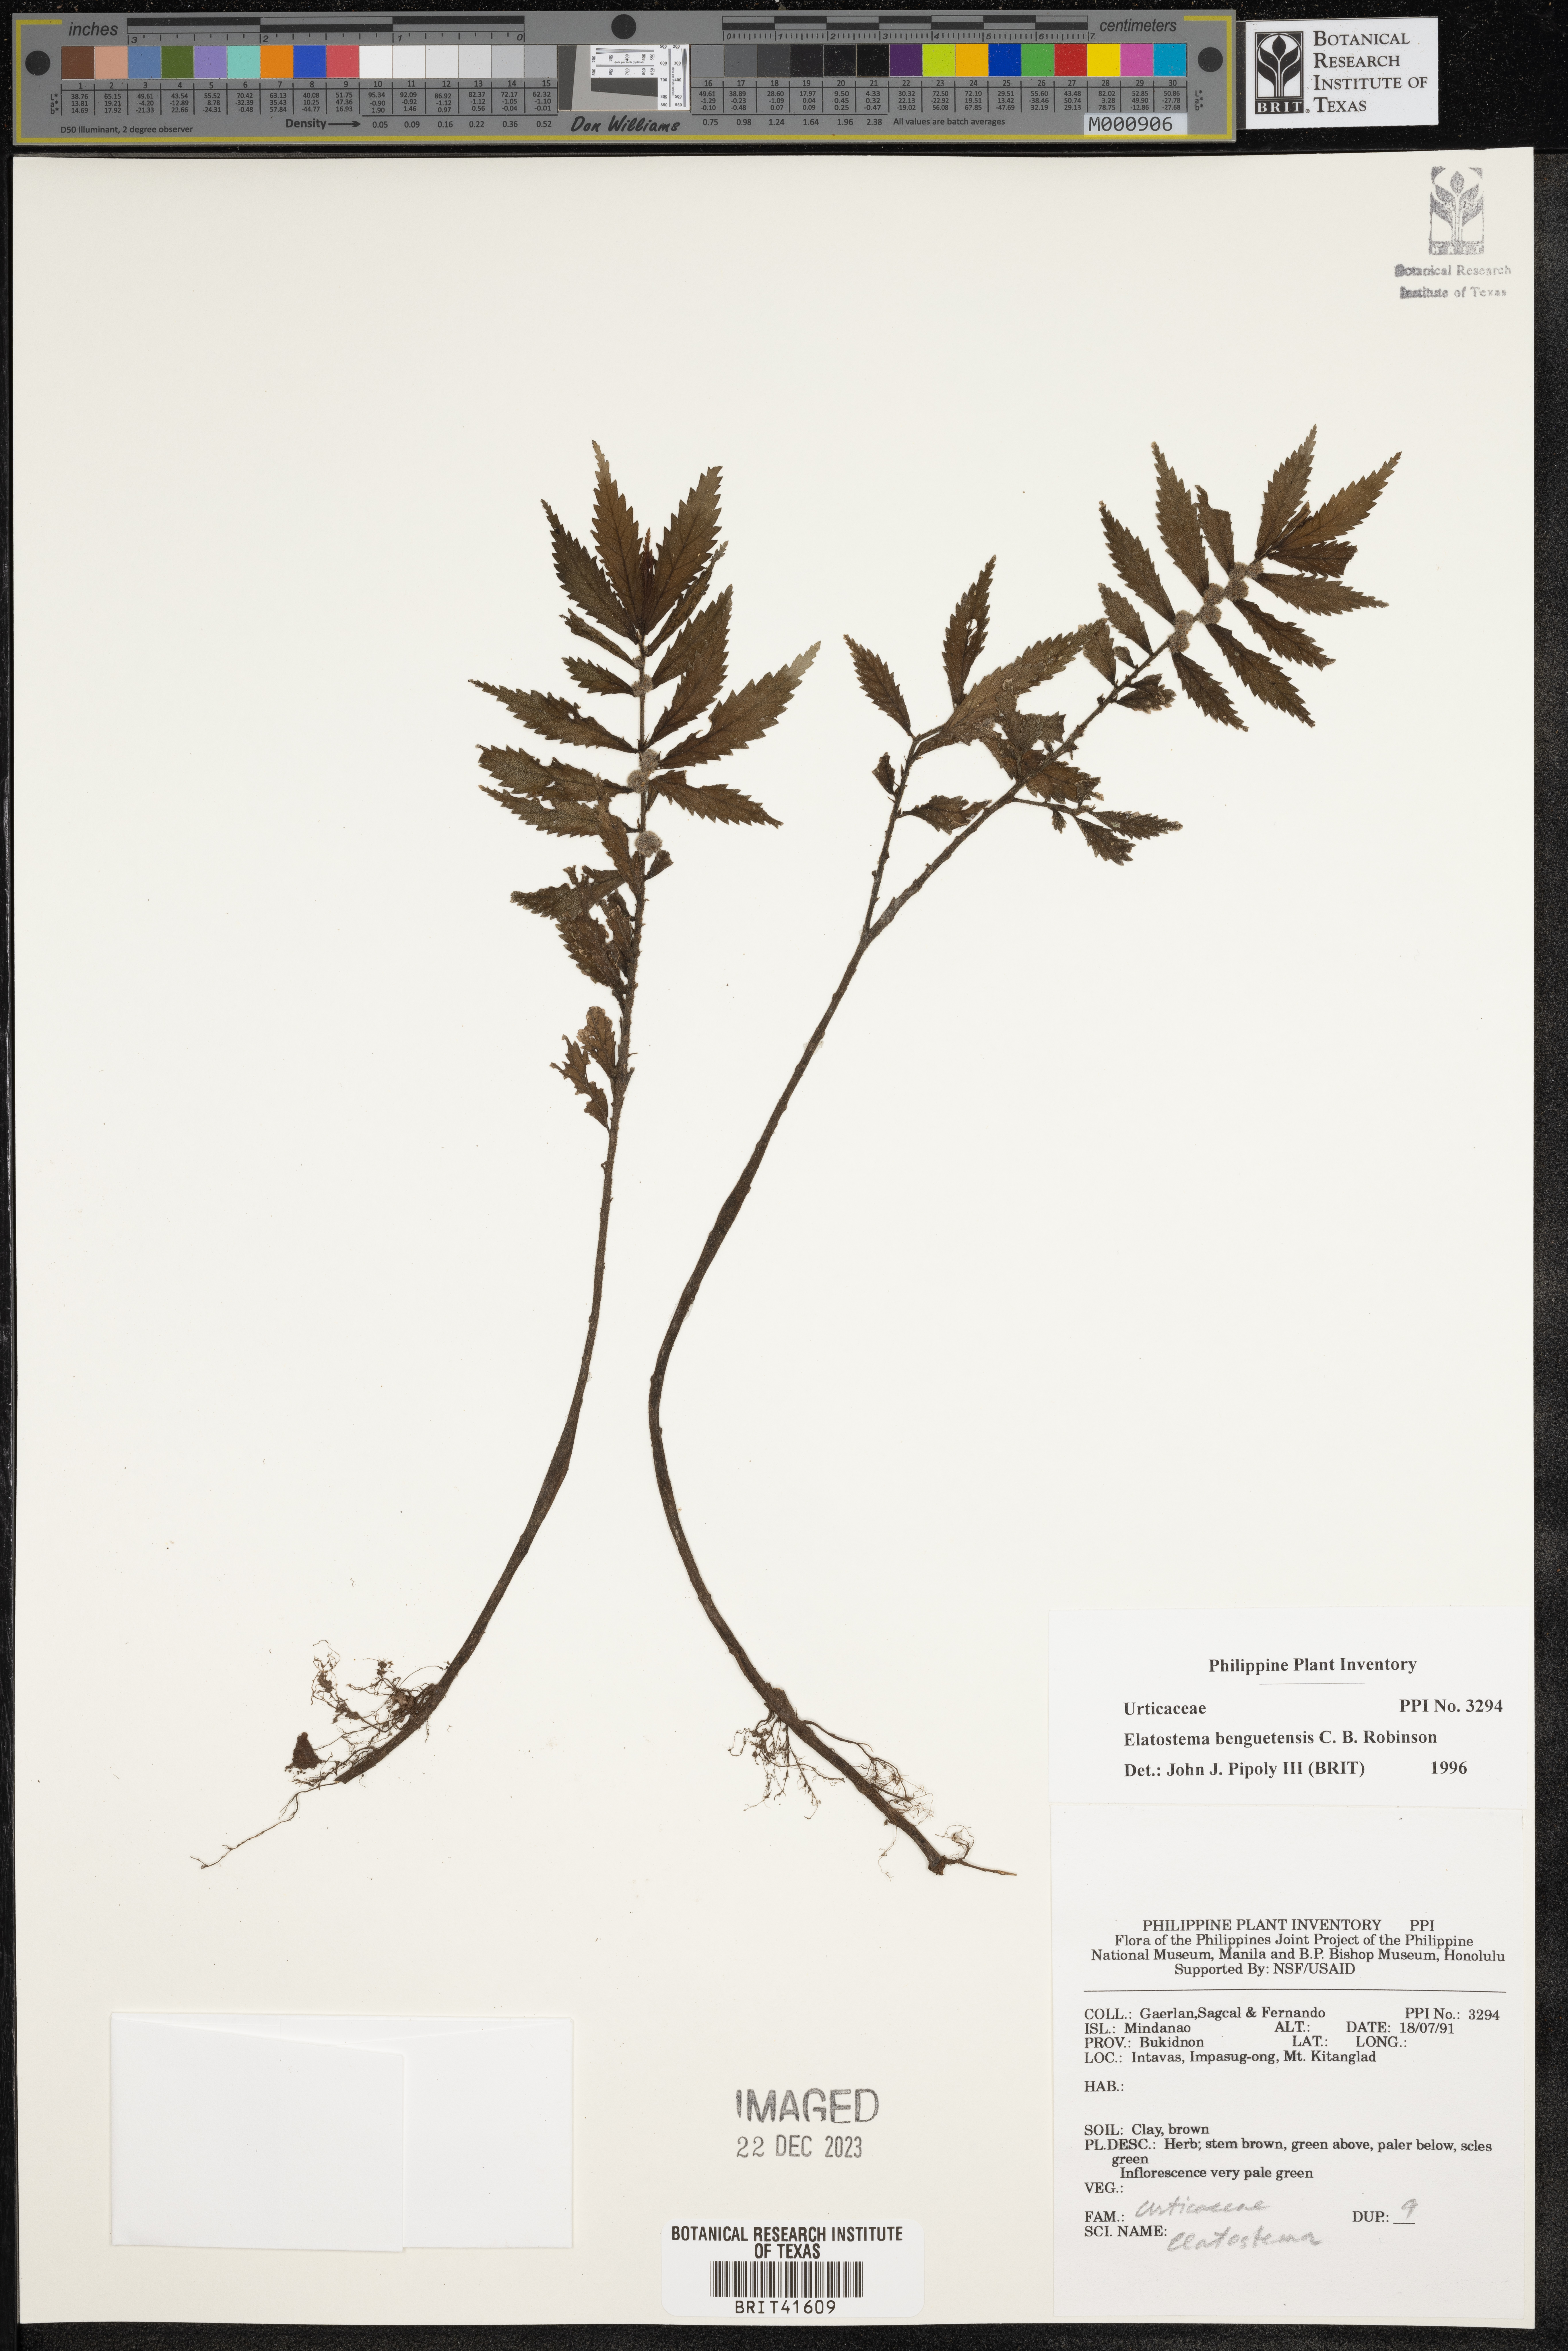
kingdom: Plantae
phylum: Tracheophyta
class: Magnoliopsida
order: Rosales
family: Urticaceae
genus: Elatostema
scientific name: Elatostema benguetense
